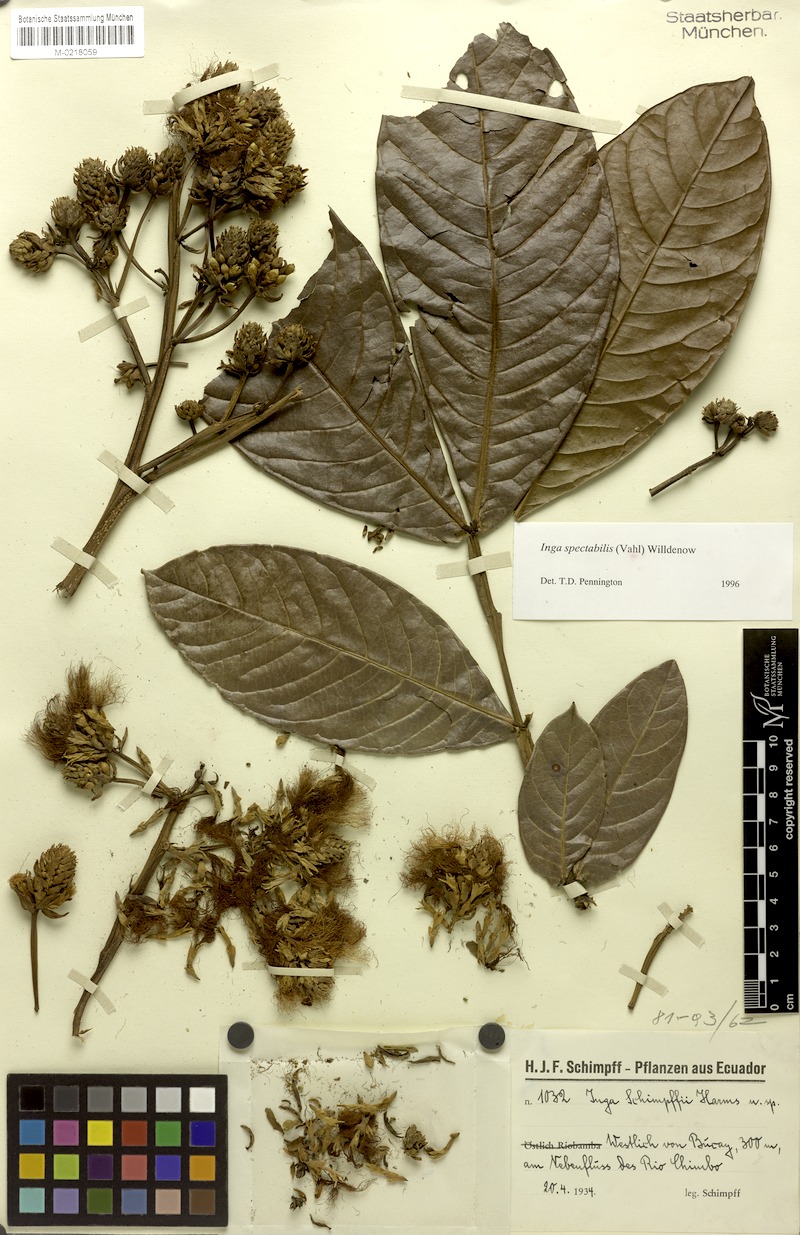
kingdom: Plantae
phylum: Tracheophyta
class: Magnoliopsida
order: Fabales
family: Fabaceae
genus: Inga
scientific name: Inga spectabilis
